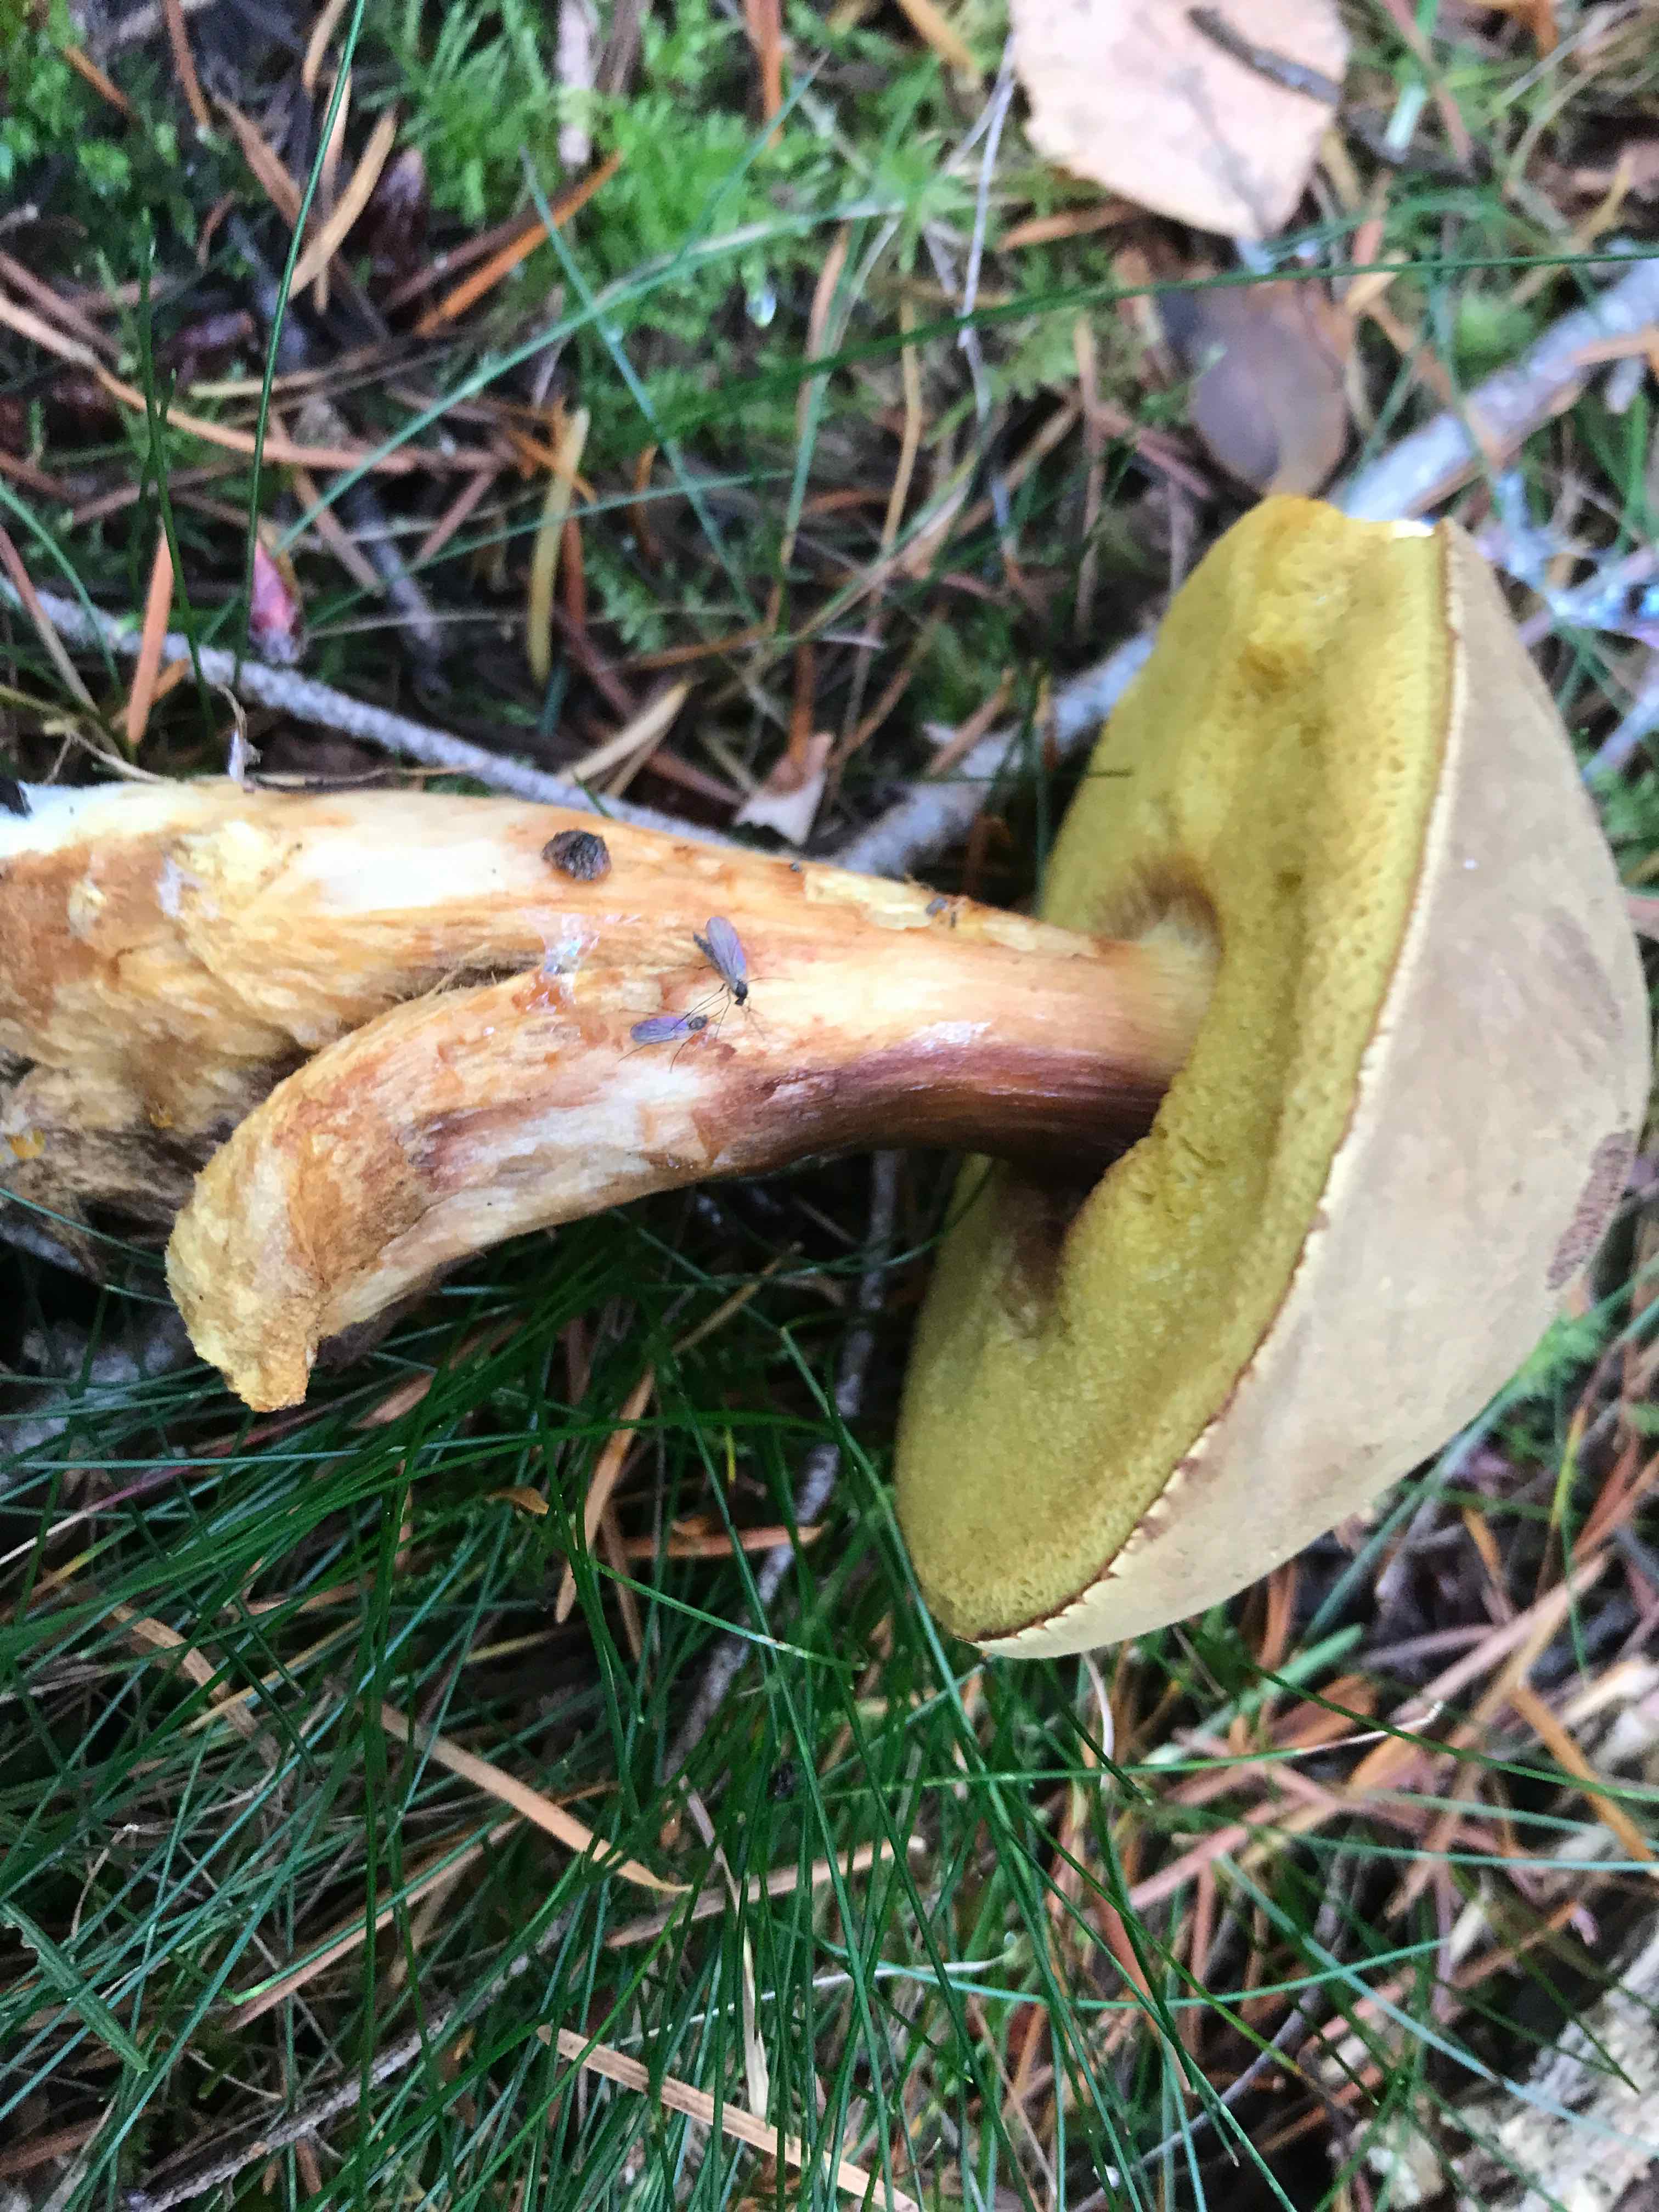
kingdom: Fungi
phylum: Basidiomycota
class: Agaricomycetes
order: Boletales
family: Boletaceae
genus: Xerocomus
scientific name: Xerocomus ferrugineus
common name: vaskeskinds-rørhat
